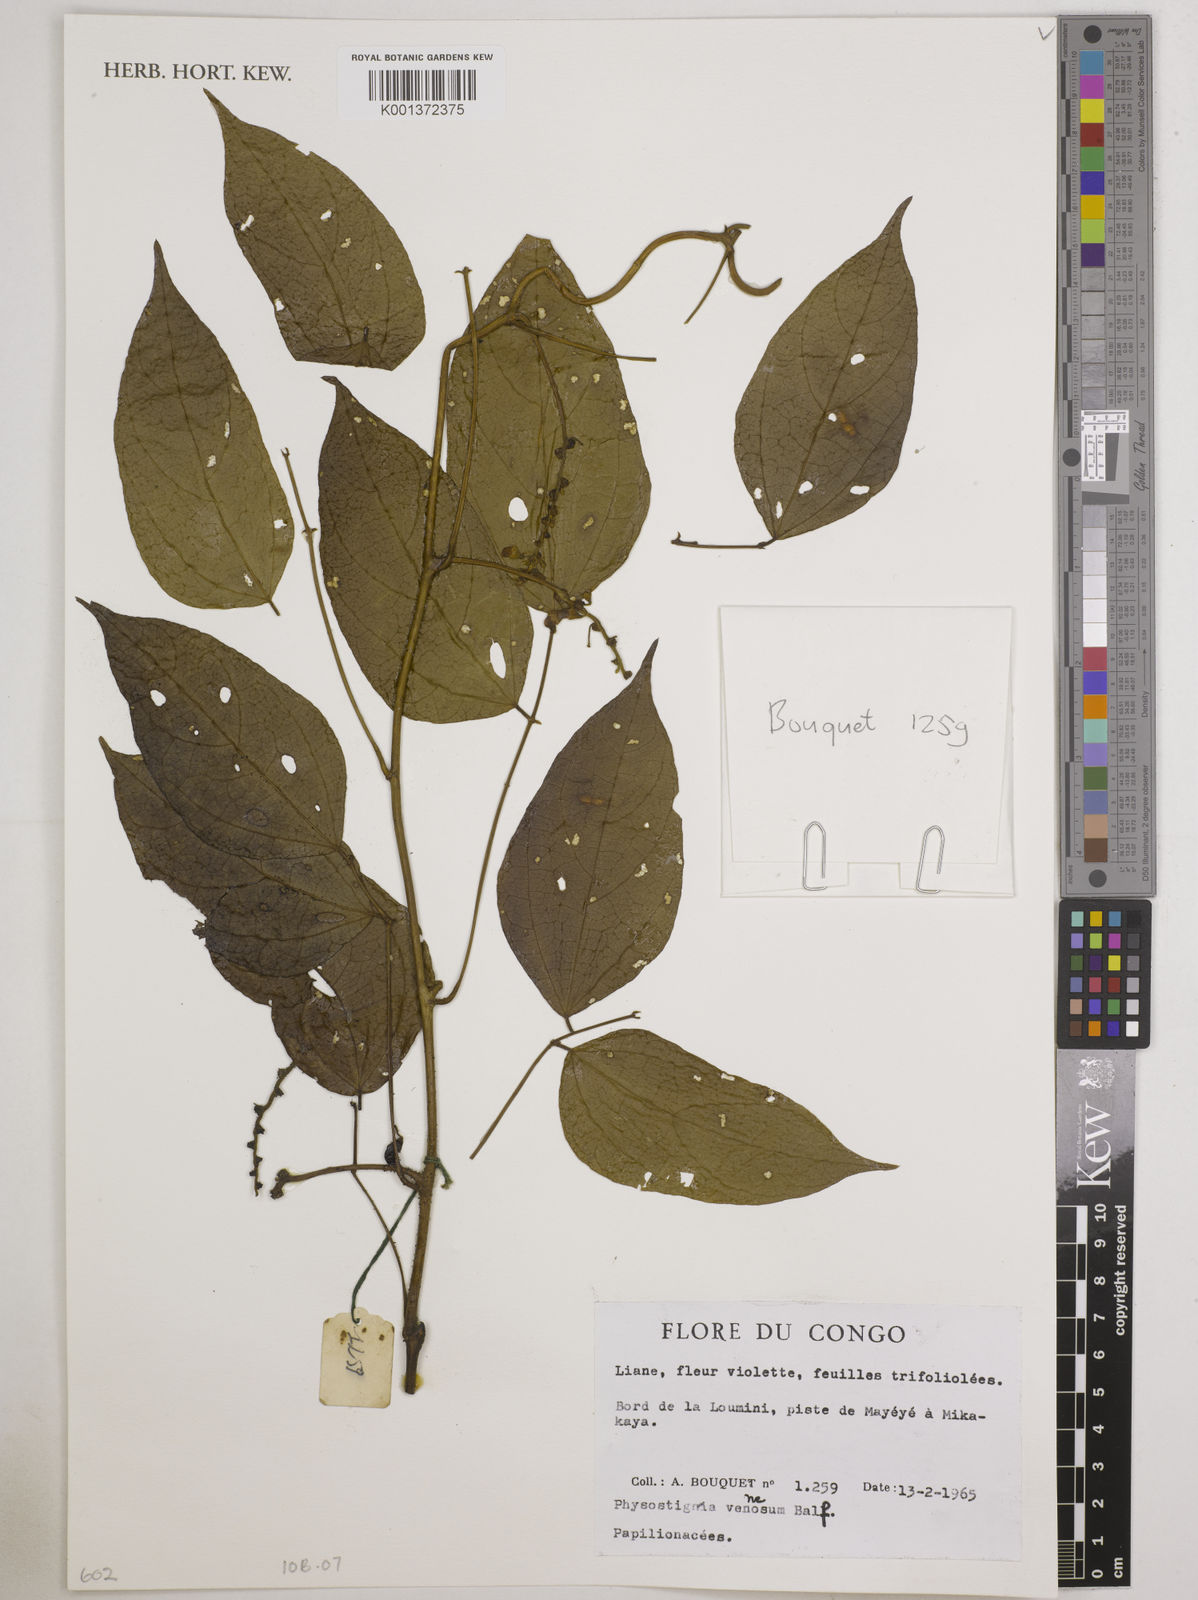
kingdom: Plantae
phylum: Tracheophyta
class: Magnoliopsida
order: Fabales
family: Fabaceae
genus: Physostigma
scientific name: Physostigma venenosum
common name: Calabar-bean
